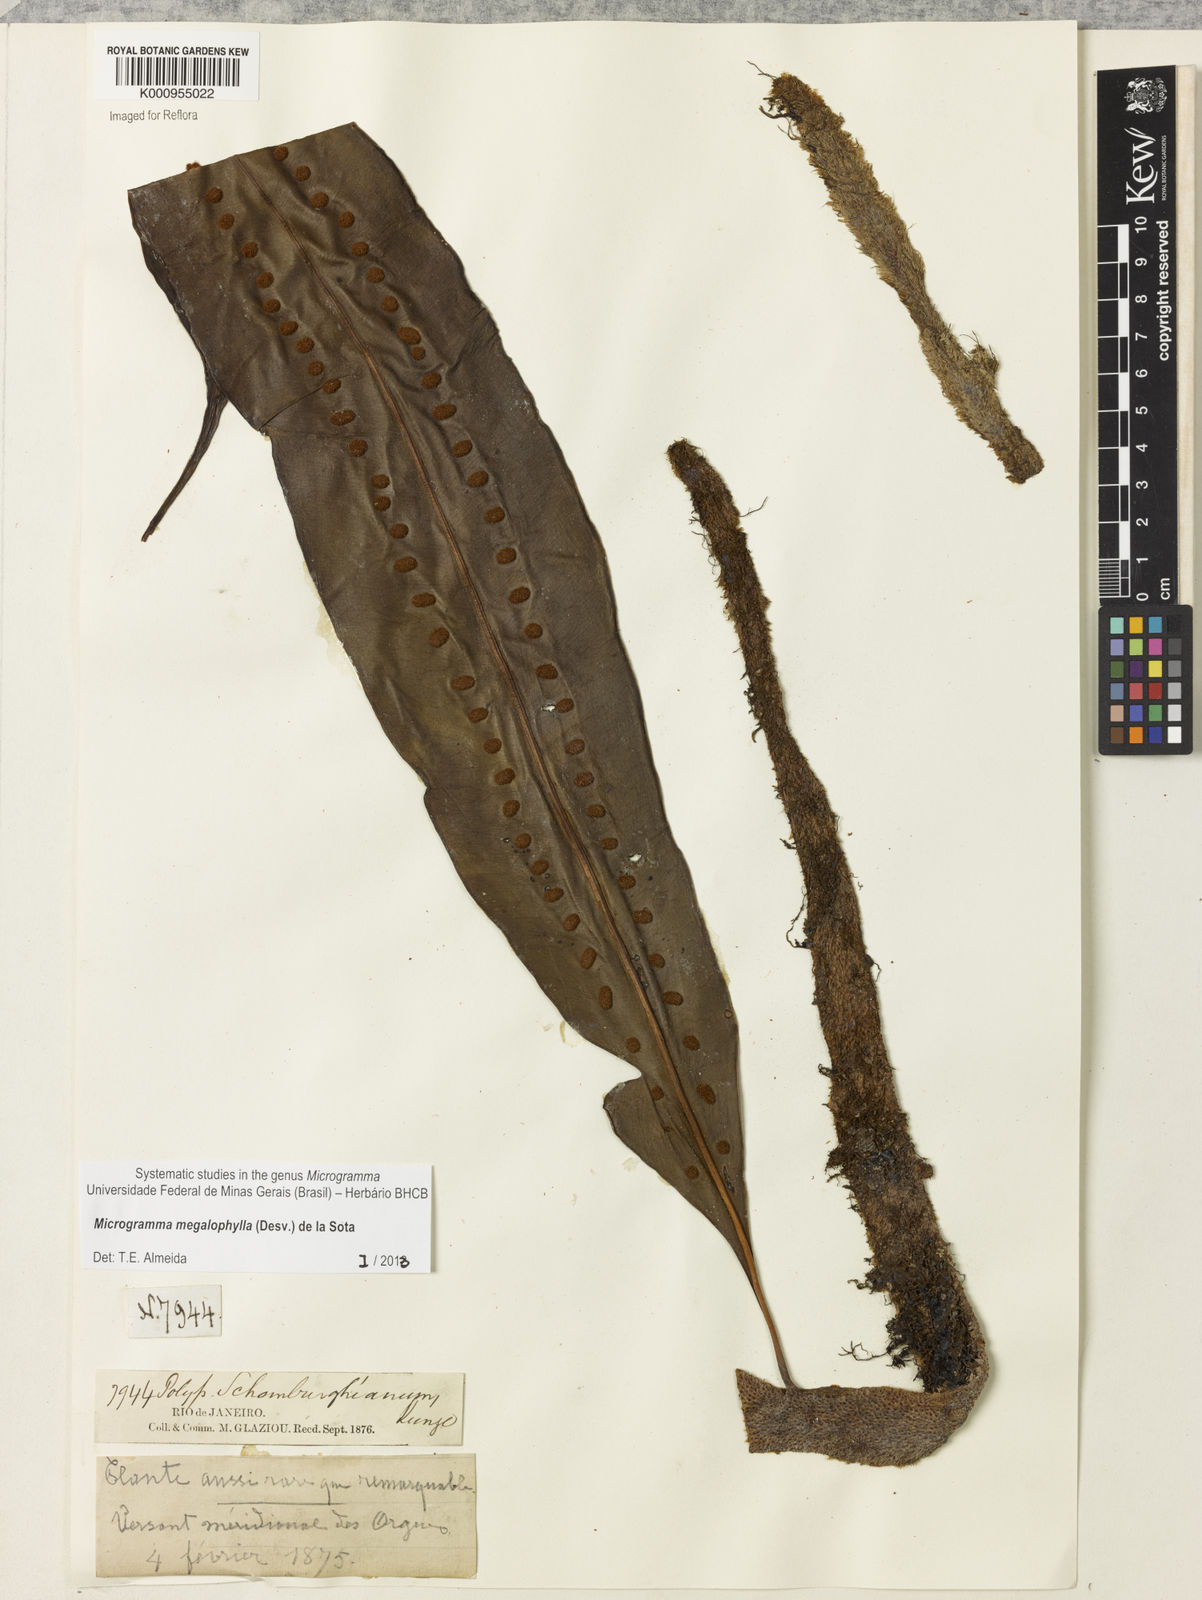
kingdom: Plantae
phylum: Tracheophyta
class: Polypodiopsida
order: Polypodiales
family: Polypodiaceae
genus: Microgramma
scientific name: Microgramma megalophylla
